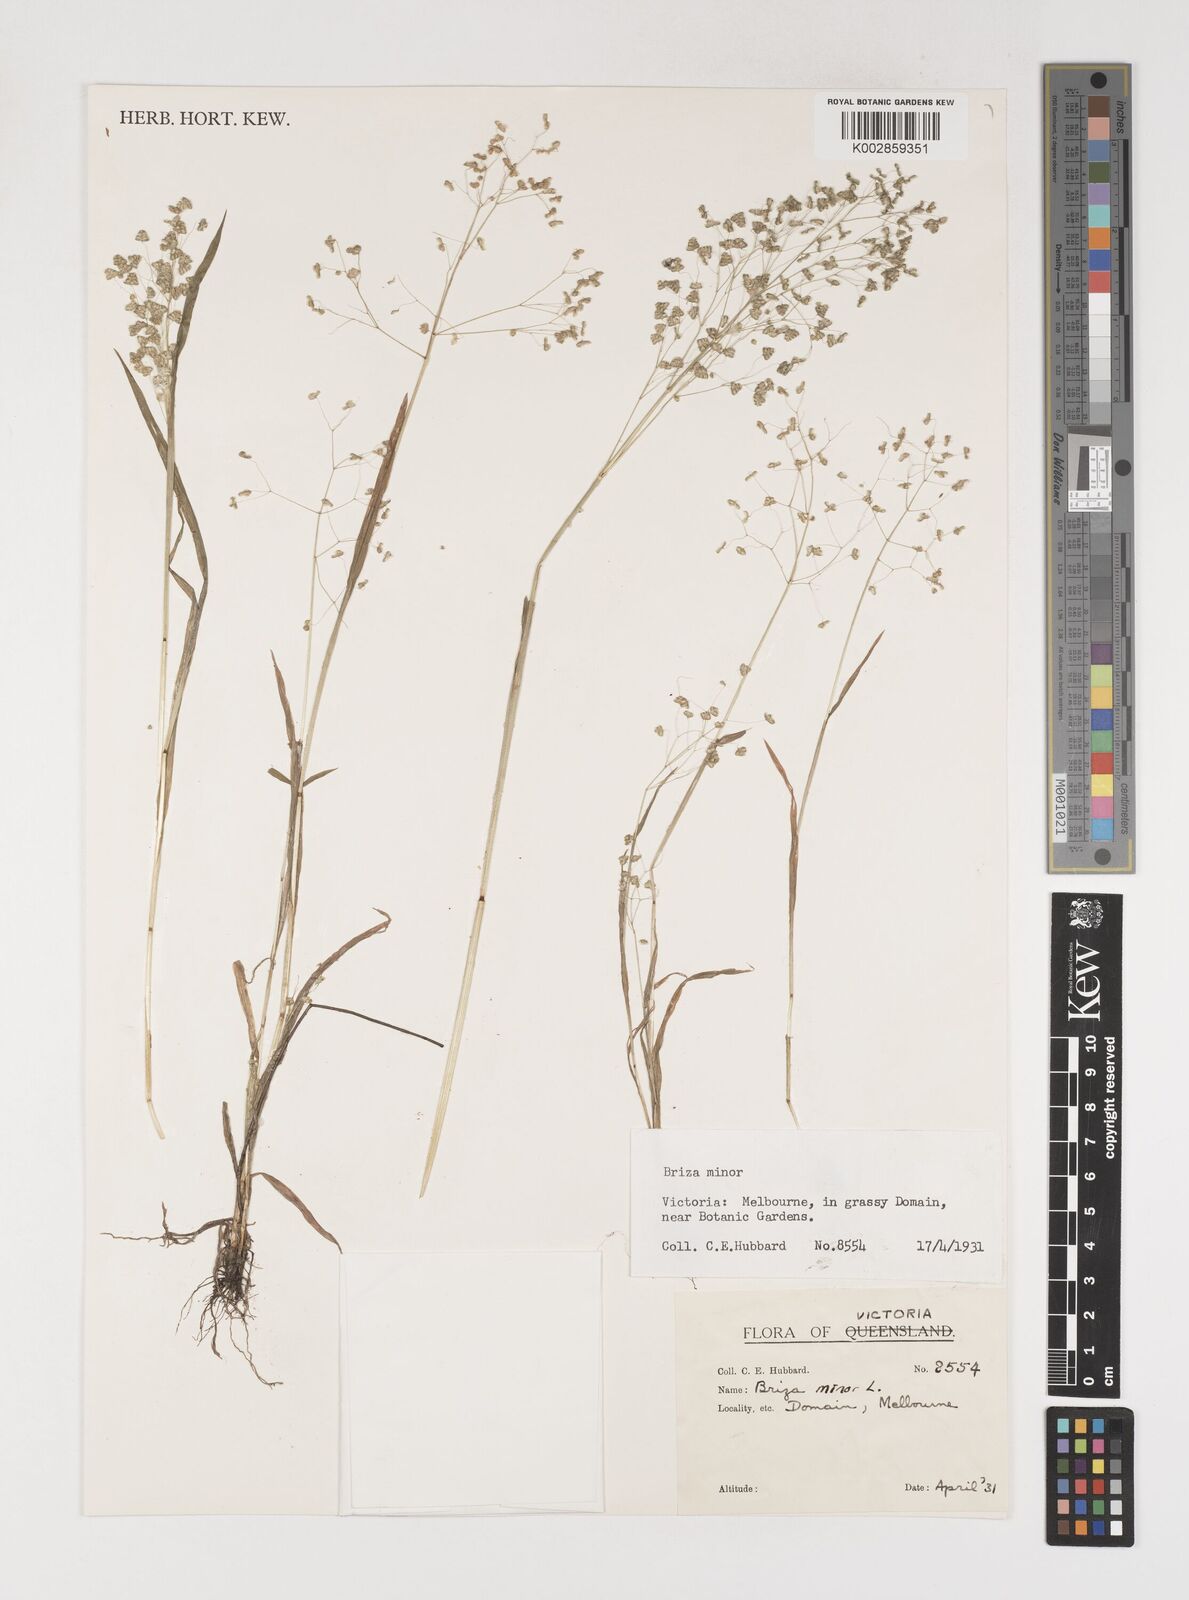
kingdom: Plantae
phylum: Tracheophyta
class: Liliopsida
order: Poales
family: Poaceae
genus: Briza
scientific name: Briza minor
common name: Lesser quaking-grass
